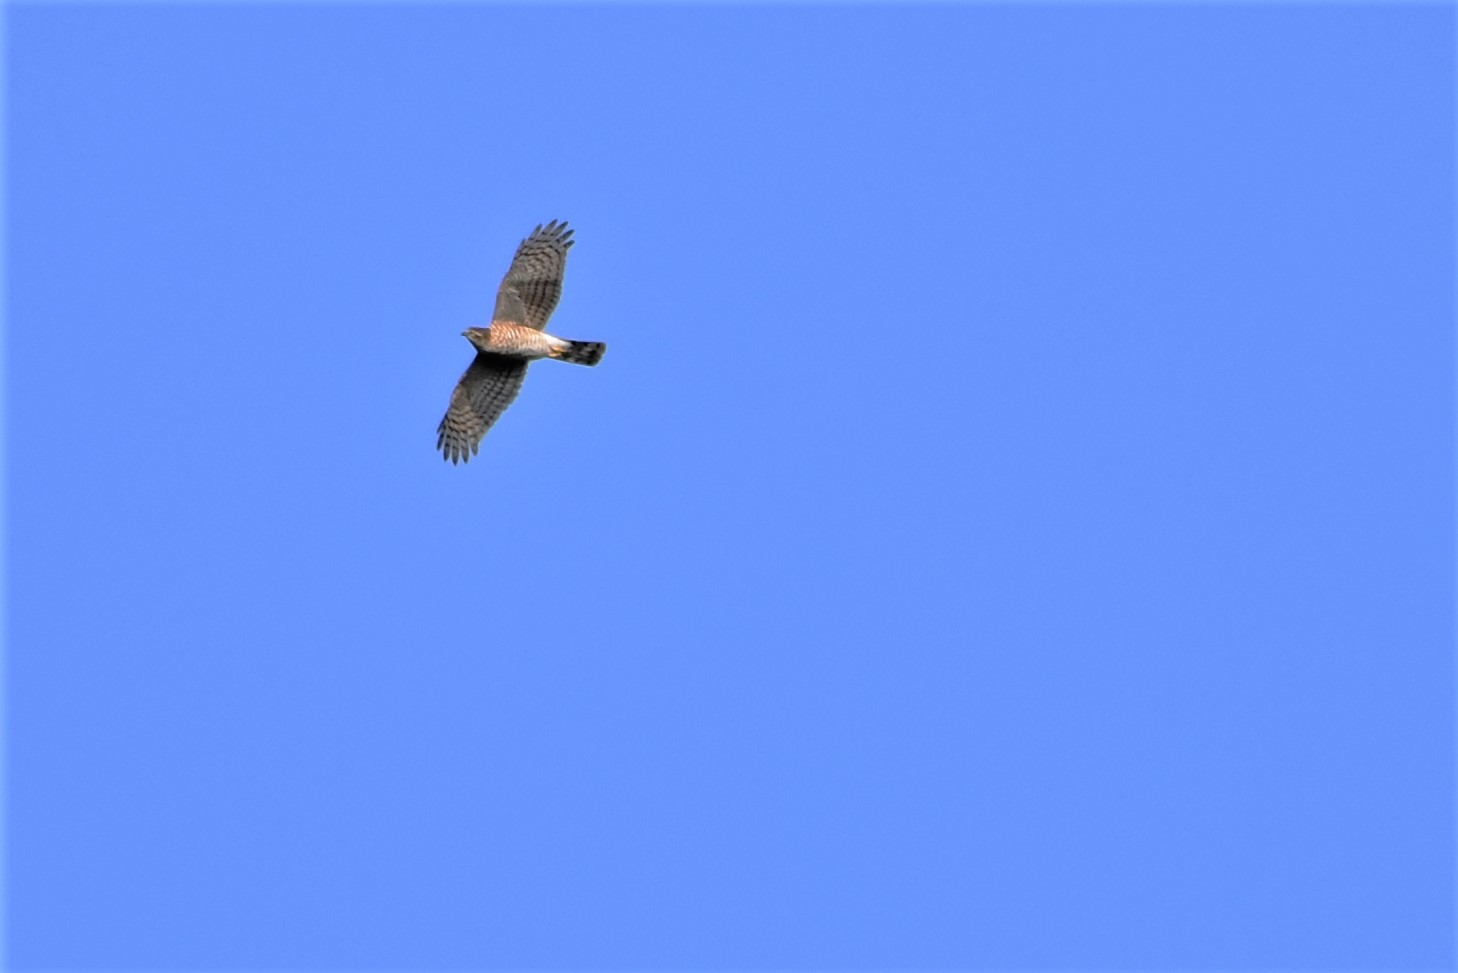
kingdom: Animalia
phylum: Chordata
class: Aves
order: Accipitriformes
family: Accipitridae
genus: Accipiter
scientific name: Accipiter nisus
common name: Spurvehøg
